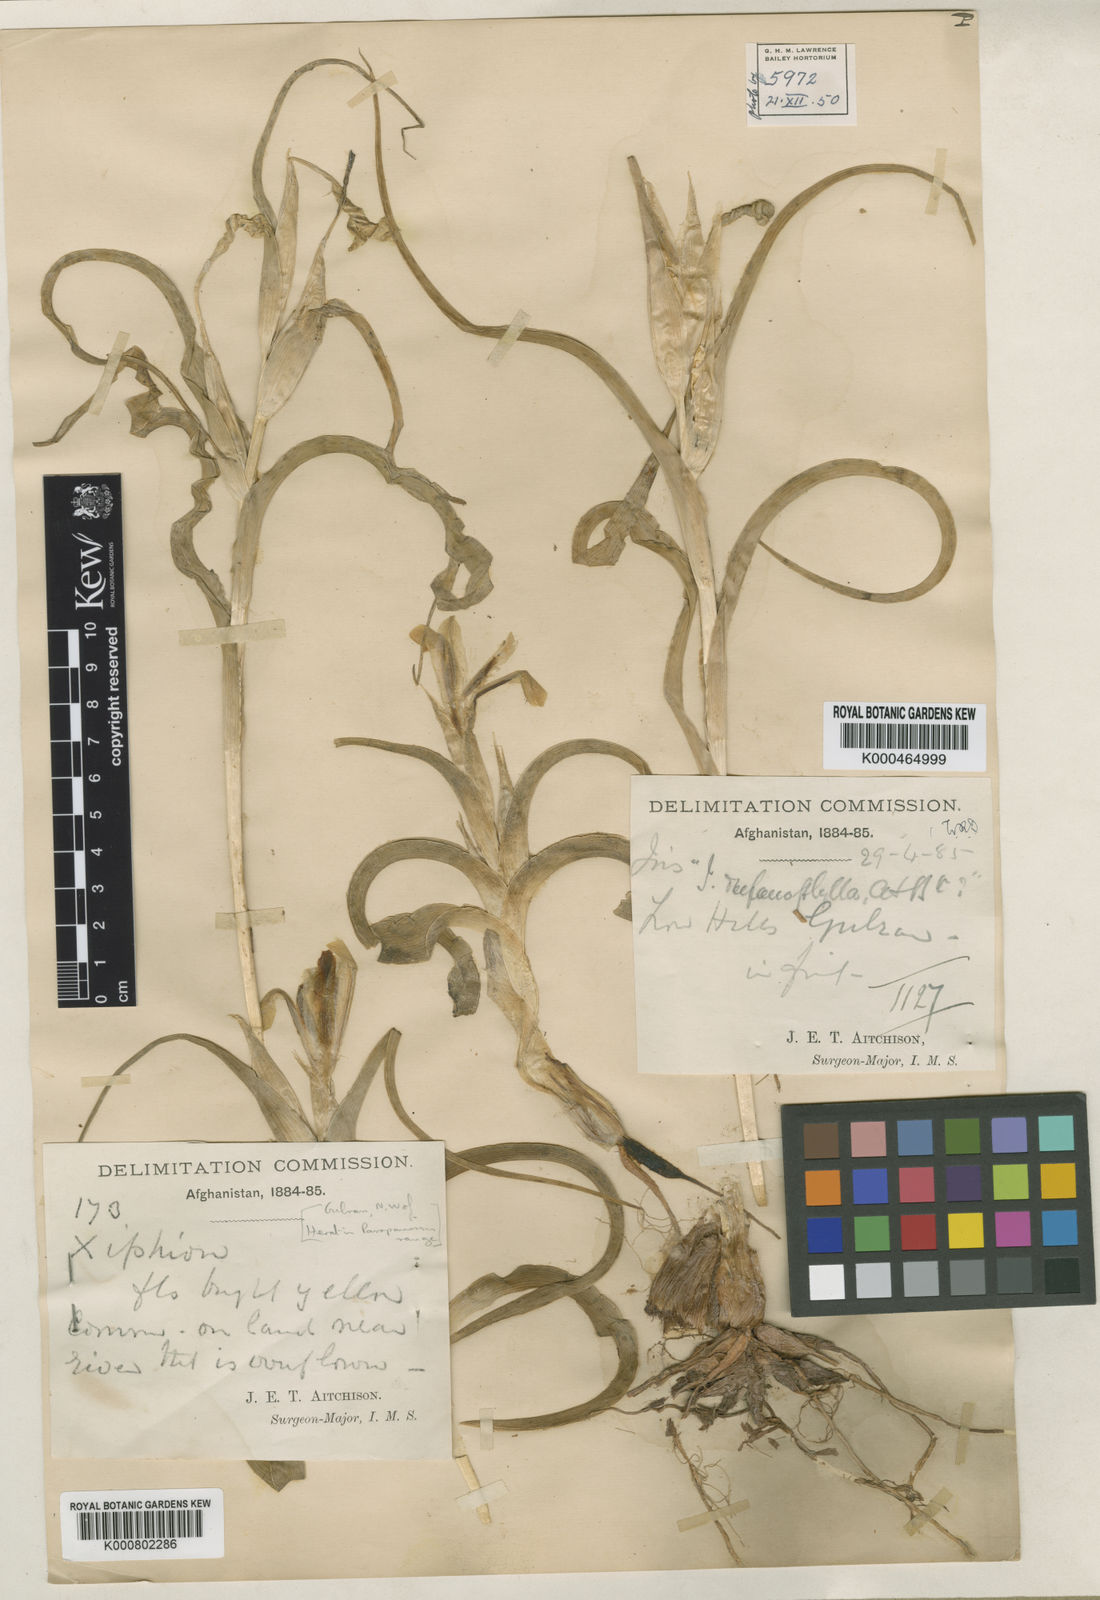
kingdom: Plantae
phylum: Tracheophyta
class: Liliopsida
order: Asparagales
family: Iridaceae
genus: Iris
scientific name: Iris drepanophylla
